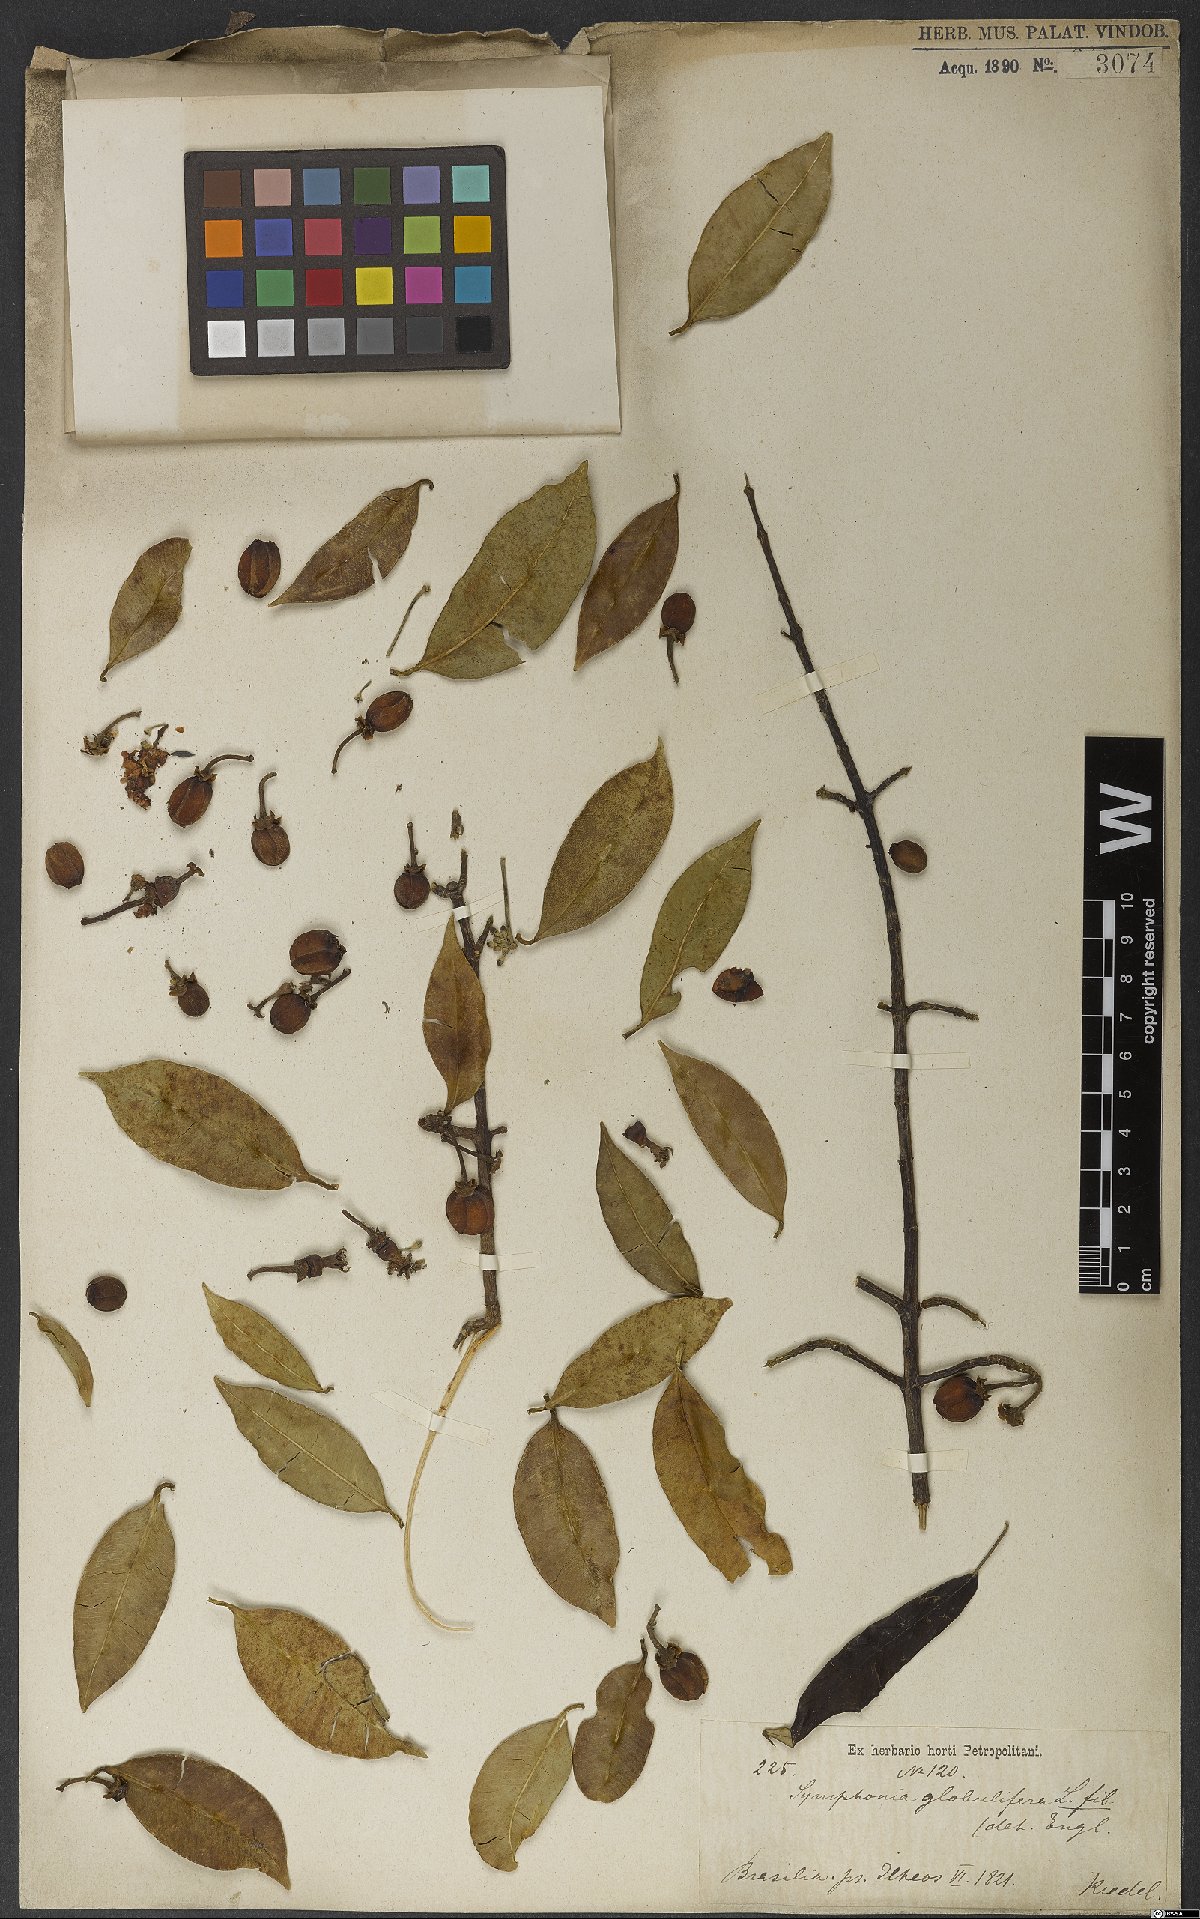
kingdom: Plantae
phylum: Tracheophyta
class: Magnoliopsida
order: Malpighiales
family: Clusiaceae
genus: Symphonia
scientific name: Symphonia globulifera
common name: Boarwood
